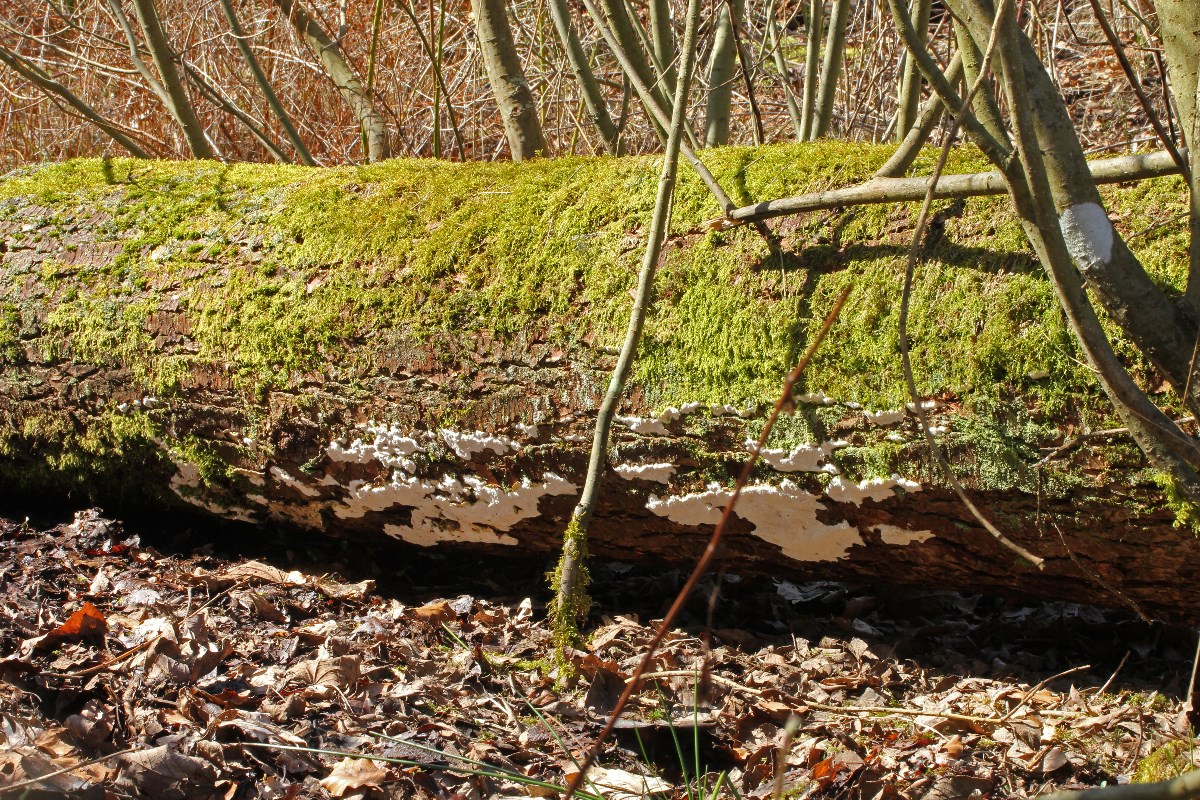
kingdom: Fungi
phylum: Basidiomycota
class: Agaricomycetes
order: Polyporales
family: Fomitopsidaceae
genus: Neoantrodia
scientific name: Neoantrodia serialis
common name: række-sejporesvamp
